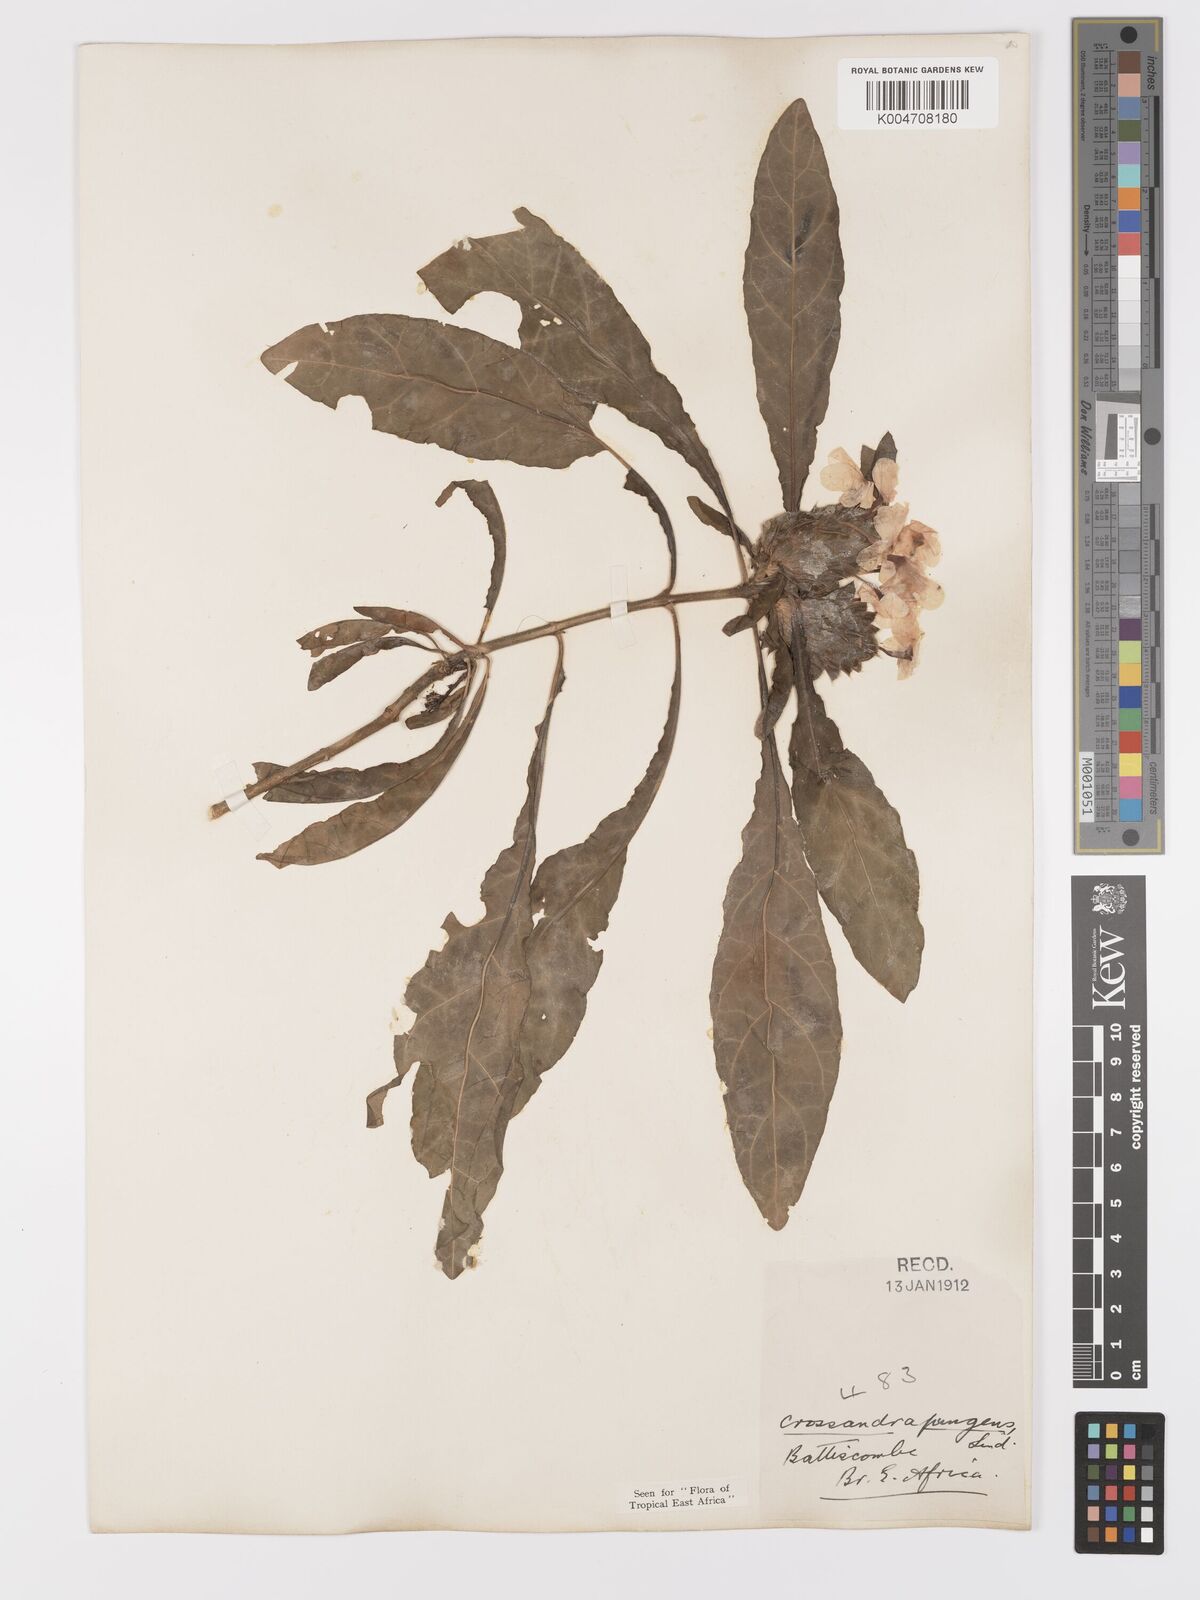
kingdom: Plantae
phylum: Tracheophyta
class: Magnoliopsida
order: Lamiales
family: Acanthaceae
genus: Crossandra
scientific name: Crossandra pungens
